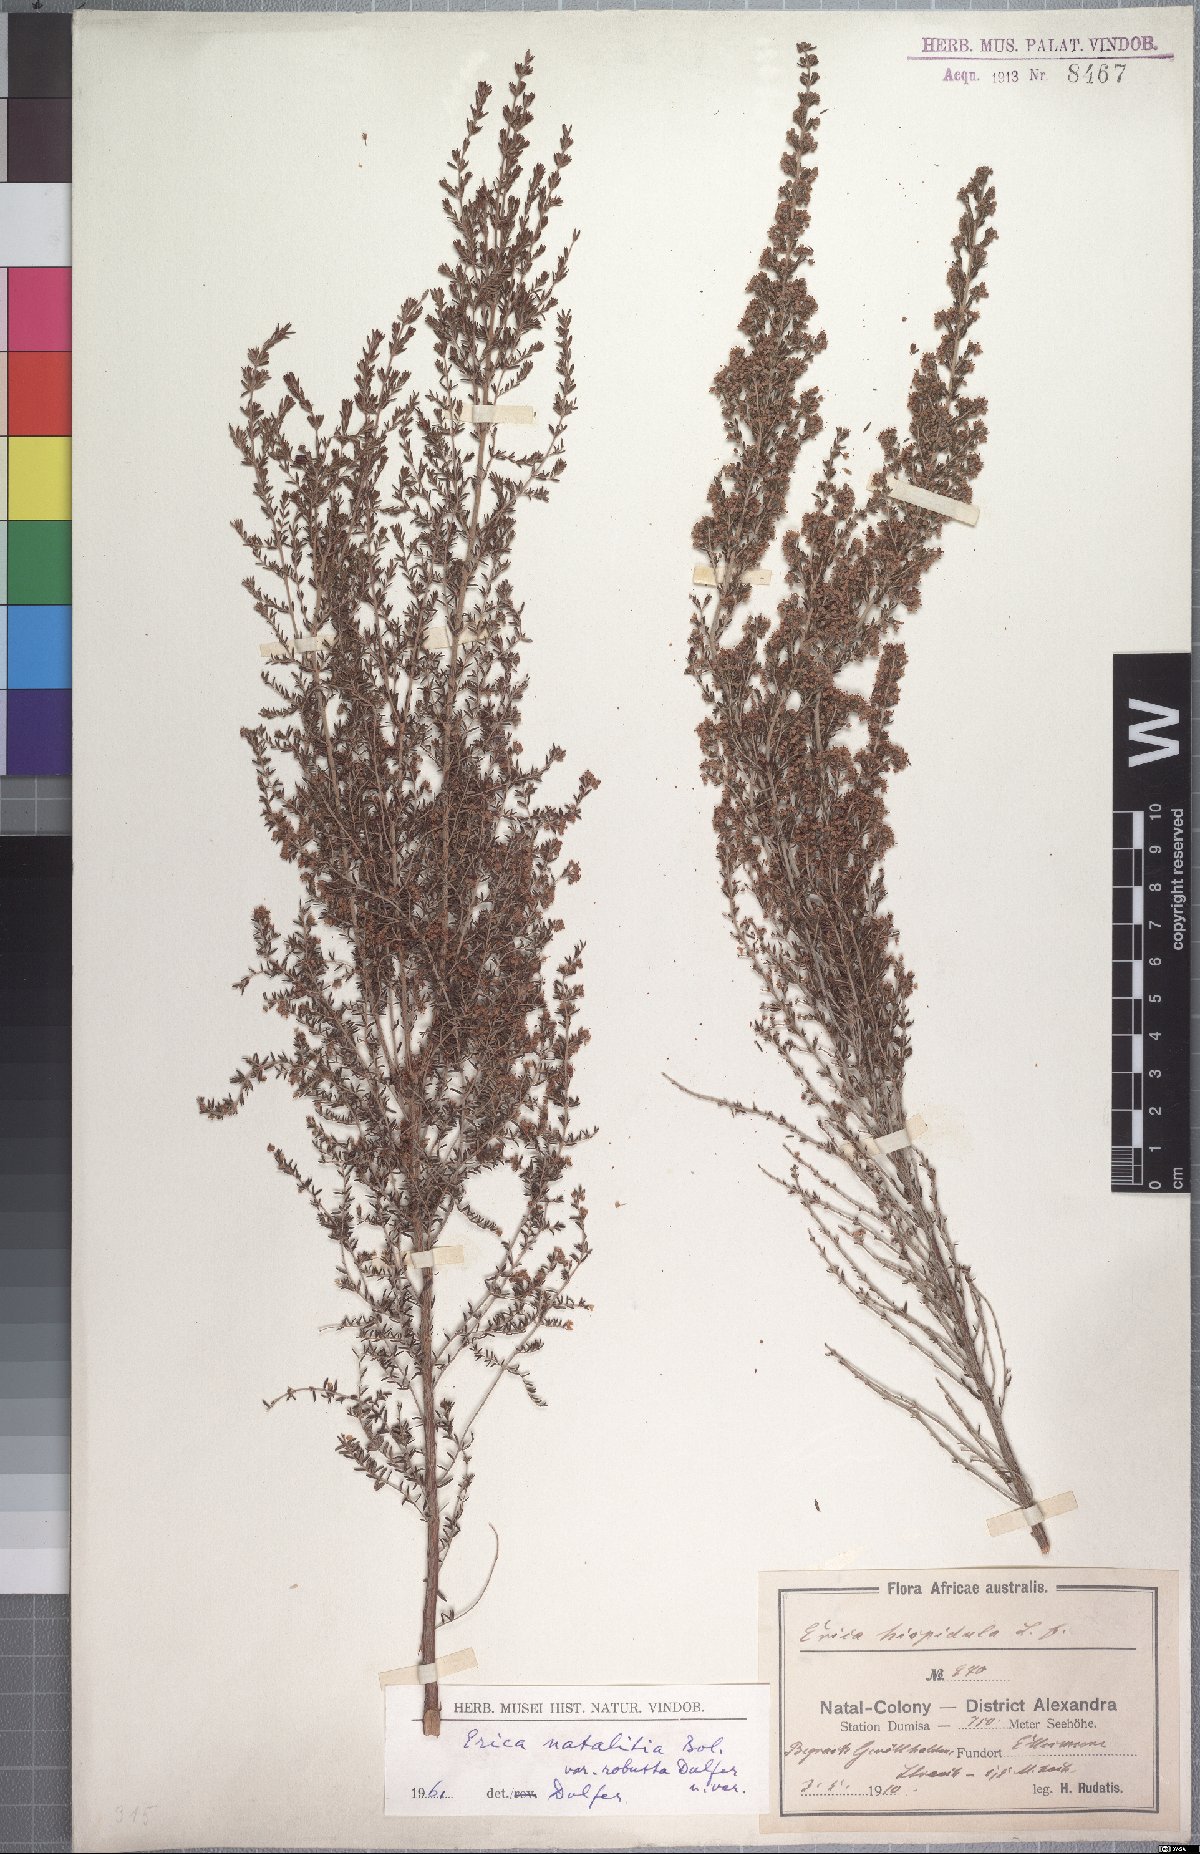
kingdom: Plantae
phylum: Tracheophyta
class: Magnoliopsida
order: Ericales
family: Ericaceae
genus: Erica
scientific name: Erica natalitia
